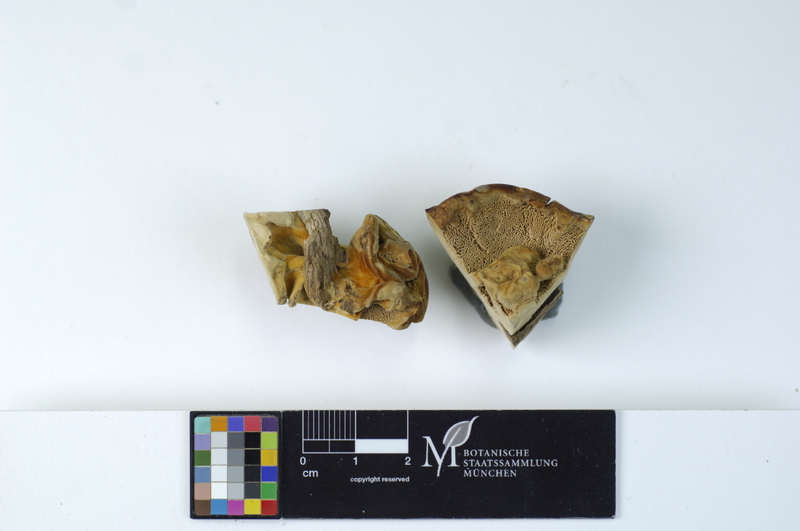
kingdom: Plantae
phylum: Tracheophyta
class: Magnoliopsida
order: Rosales
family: Rosaceae
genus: Prunus
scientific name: Prunus avium
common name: Sweet cherry
